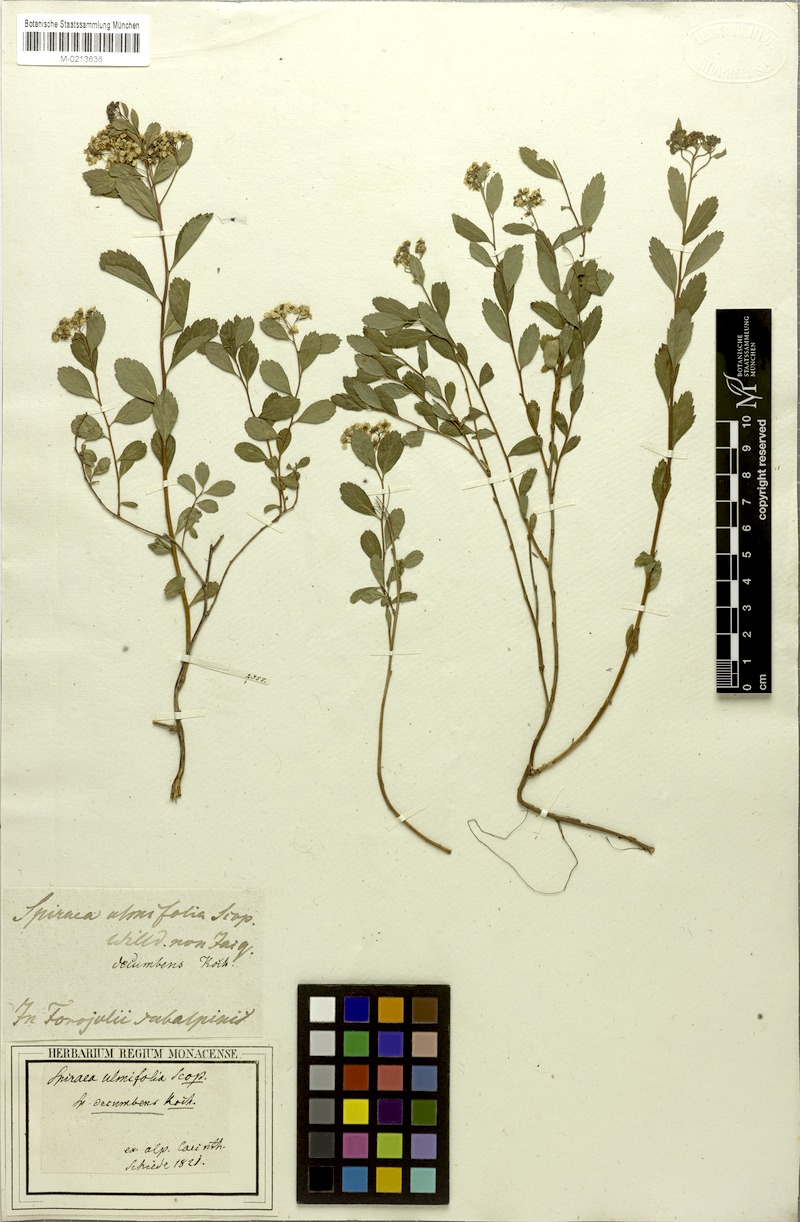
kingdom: Plantae
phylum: Tracheophyta
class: Magnoliopsida
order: Rosales
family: Rosaceae
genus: Spiraea
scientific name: Spiraea decumbens
